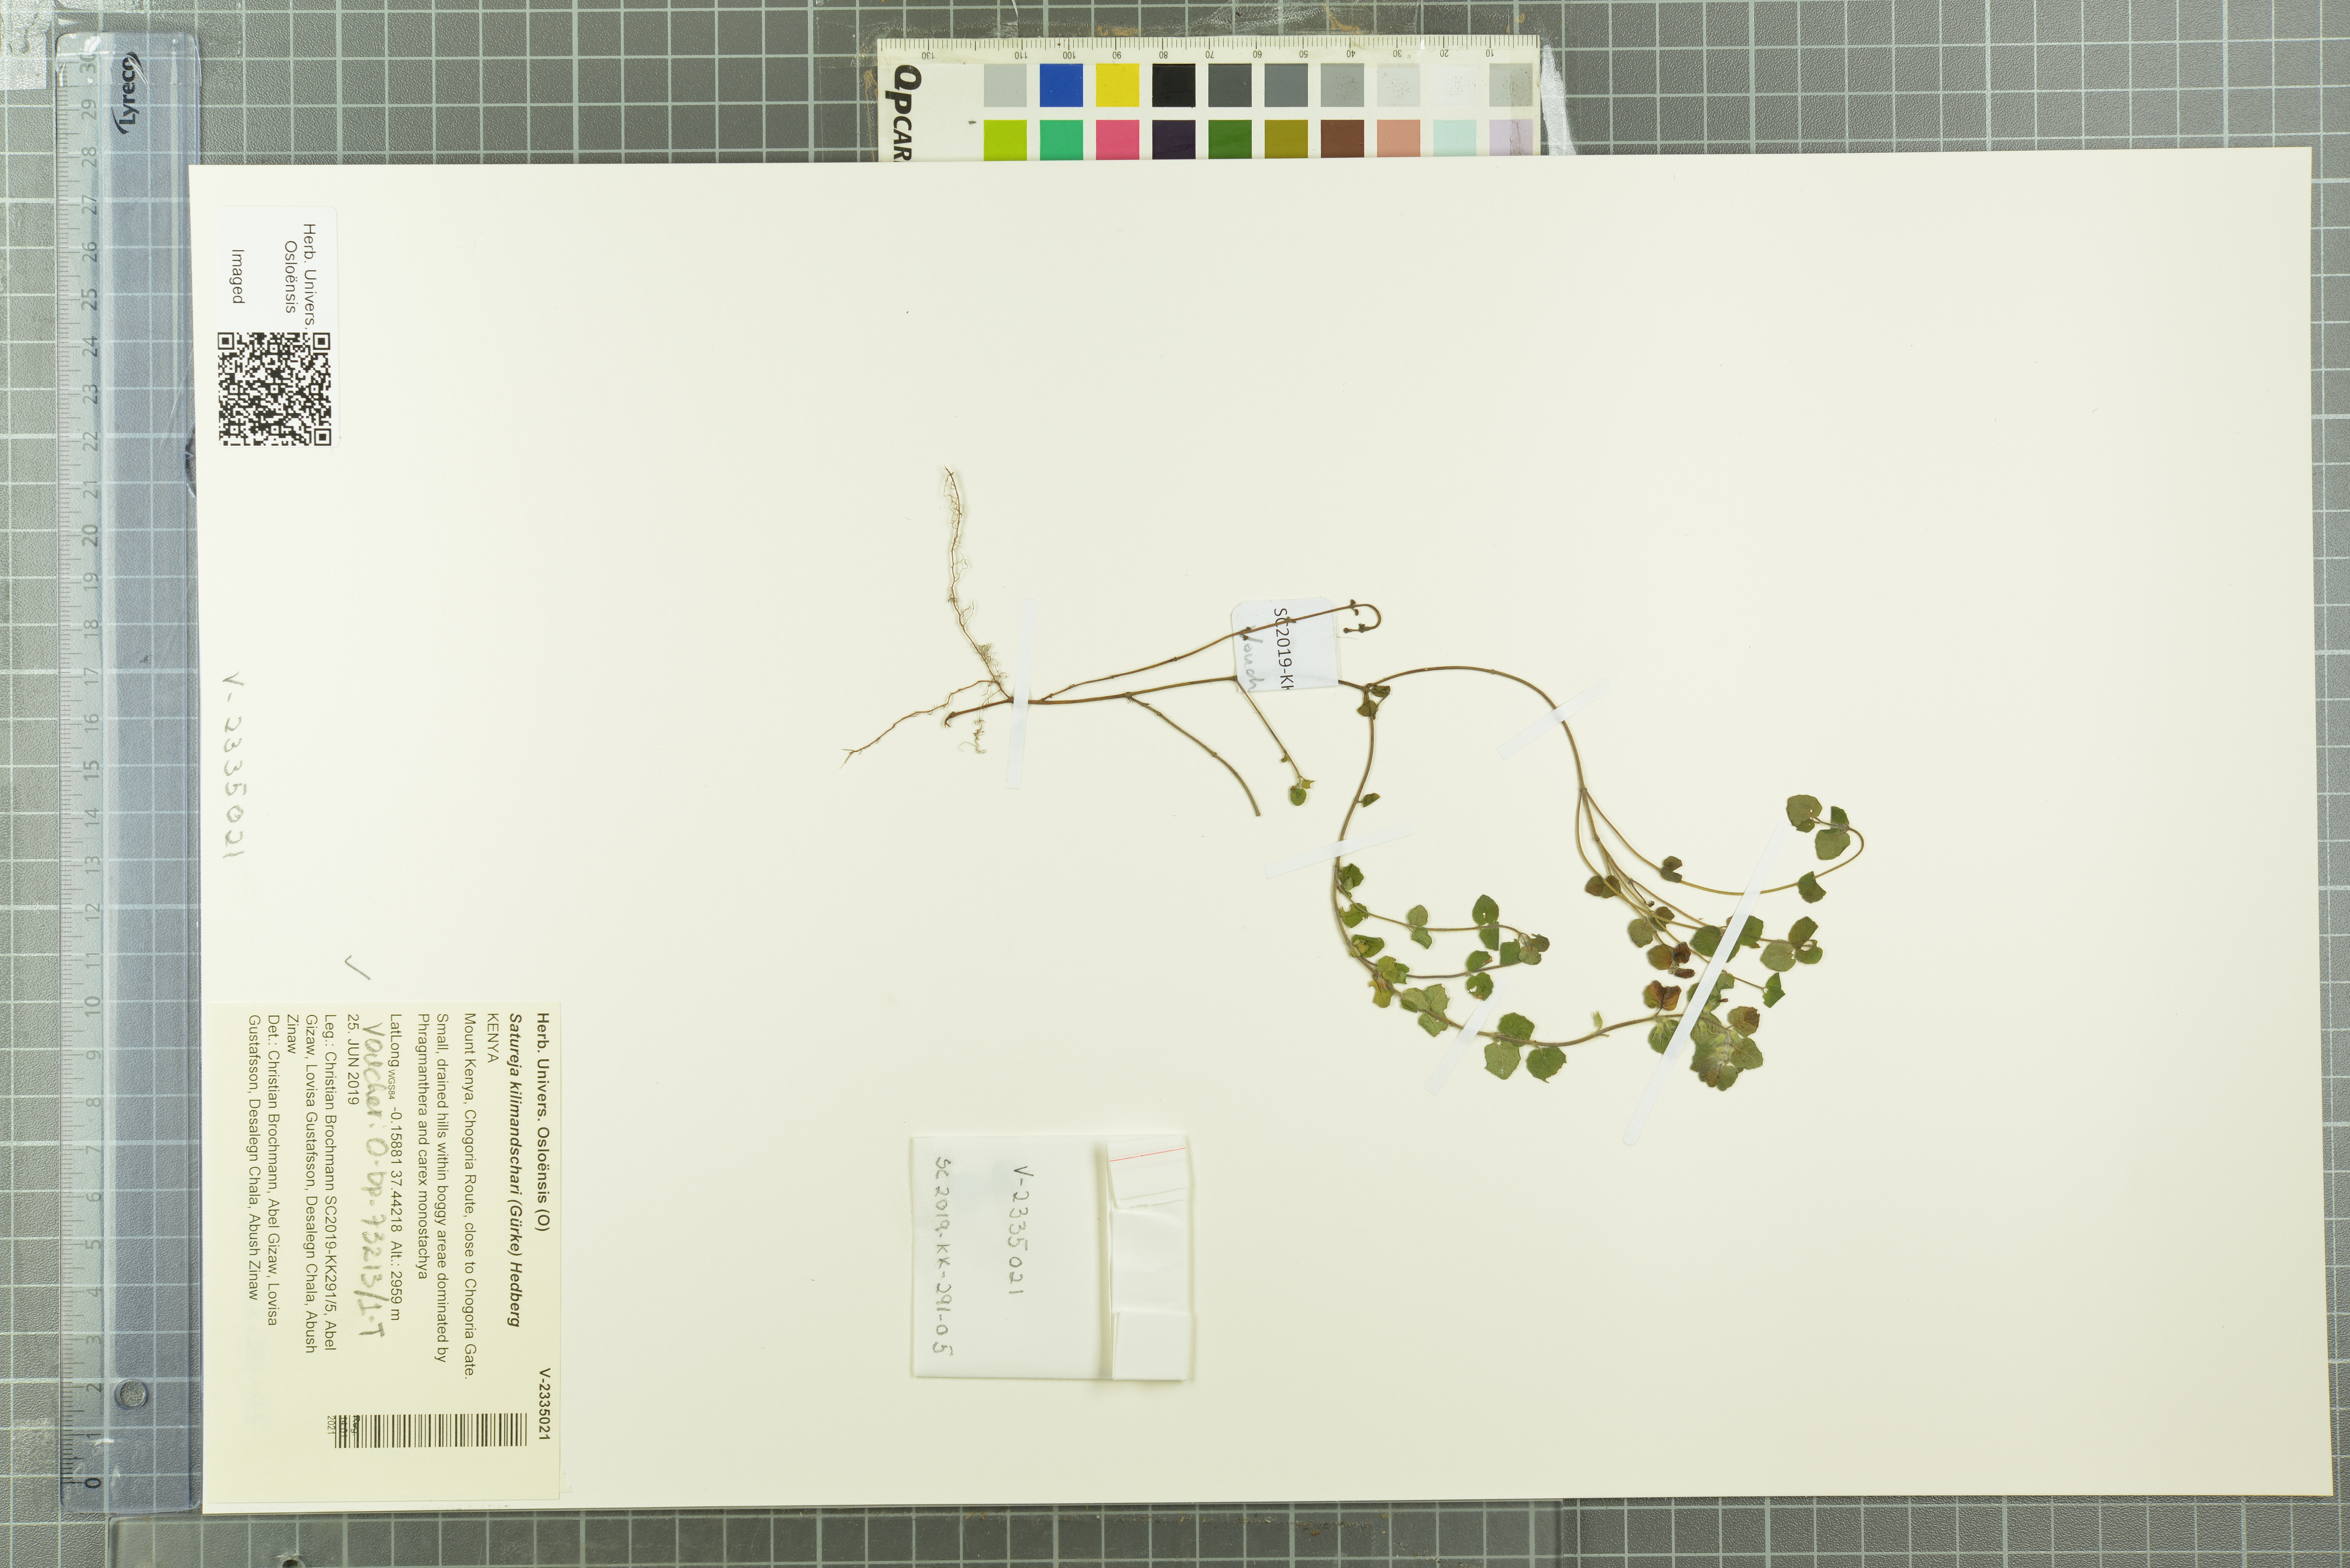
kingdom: Plantae
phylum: Tracheophyta
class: Magnoliopsida
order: Lamiales
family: Lamiaceae
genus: Clinopodium
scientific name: Clinopodium kilimandschari
